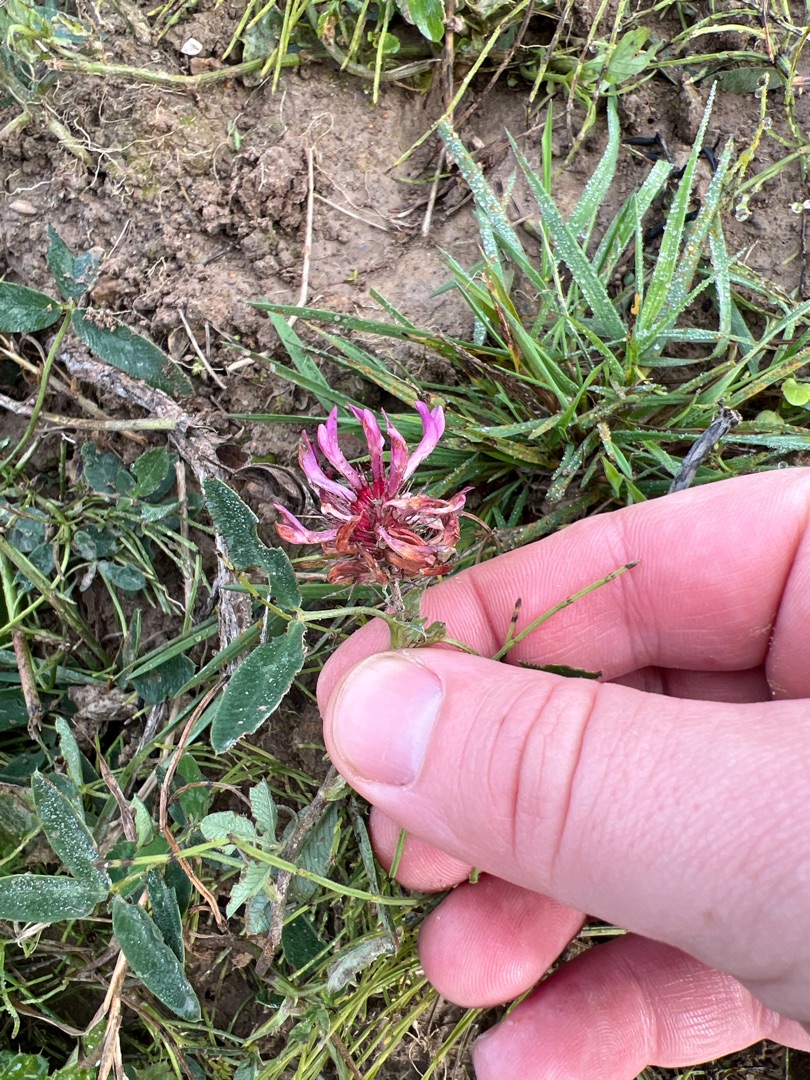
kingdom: Plantae
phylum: Tracheophyta
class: Magnoliopsida
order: Fabales
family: Fabaceae
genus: Trifolium
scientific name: Trifolium medium
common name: Bugtet kløver
